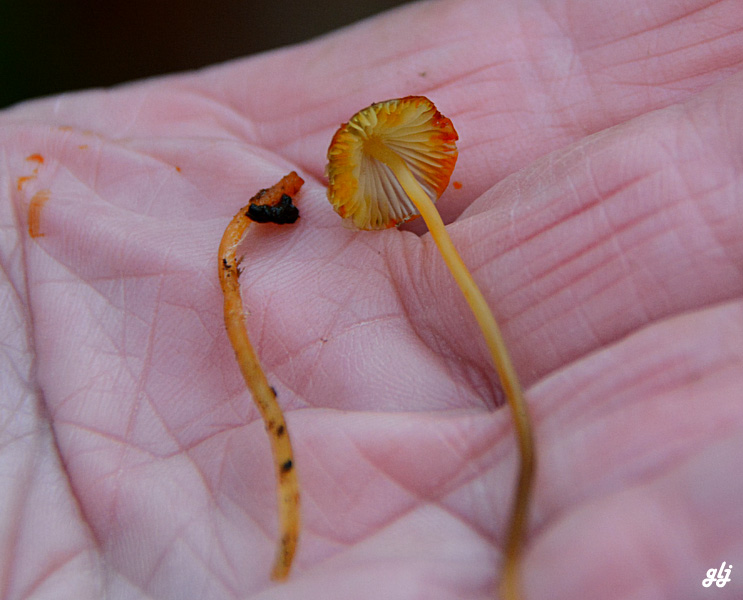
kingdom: Fungi
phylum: Basidiomycota
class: Agaricomycetes
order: Agaricales
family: Mycenaceae
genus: Mycena
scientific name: Mycena crocata
